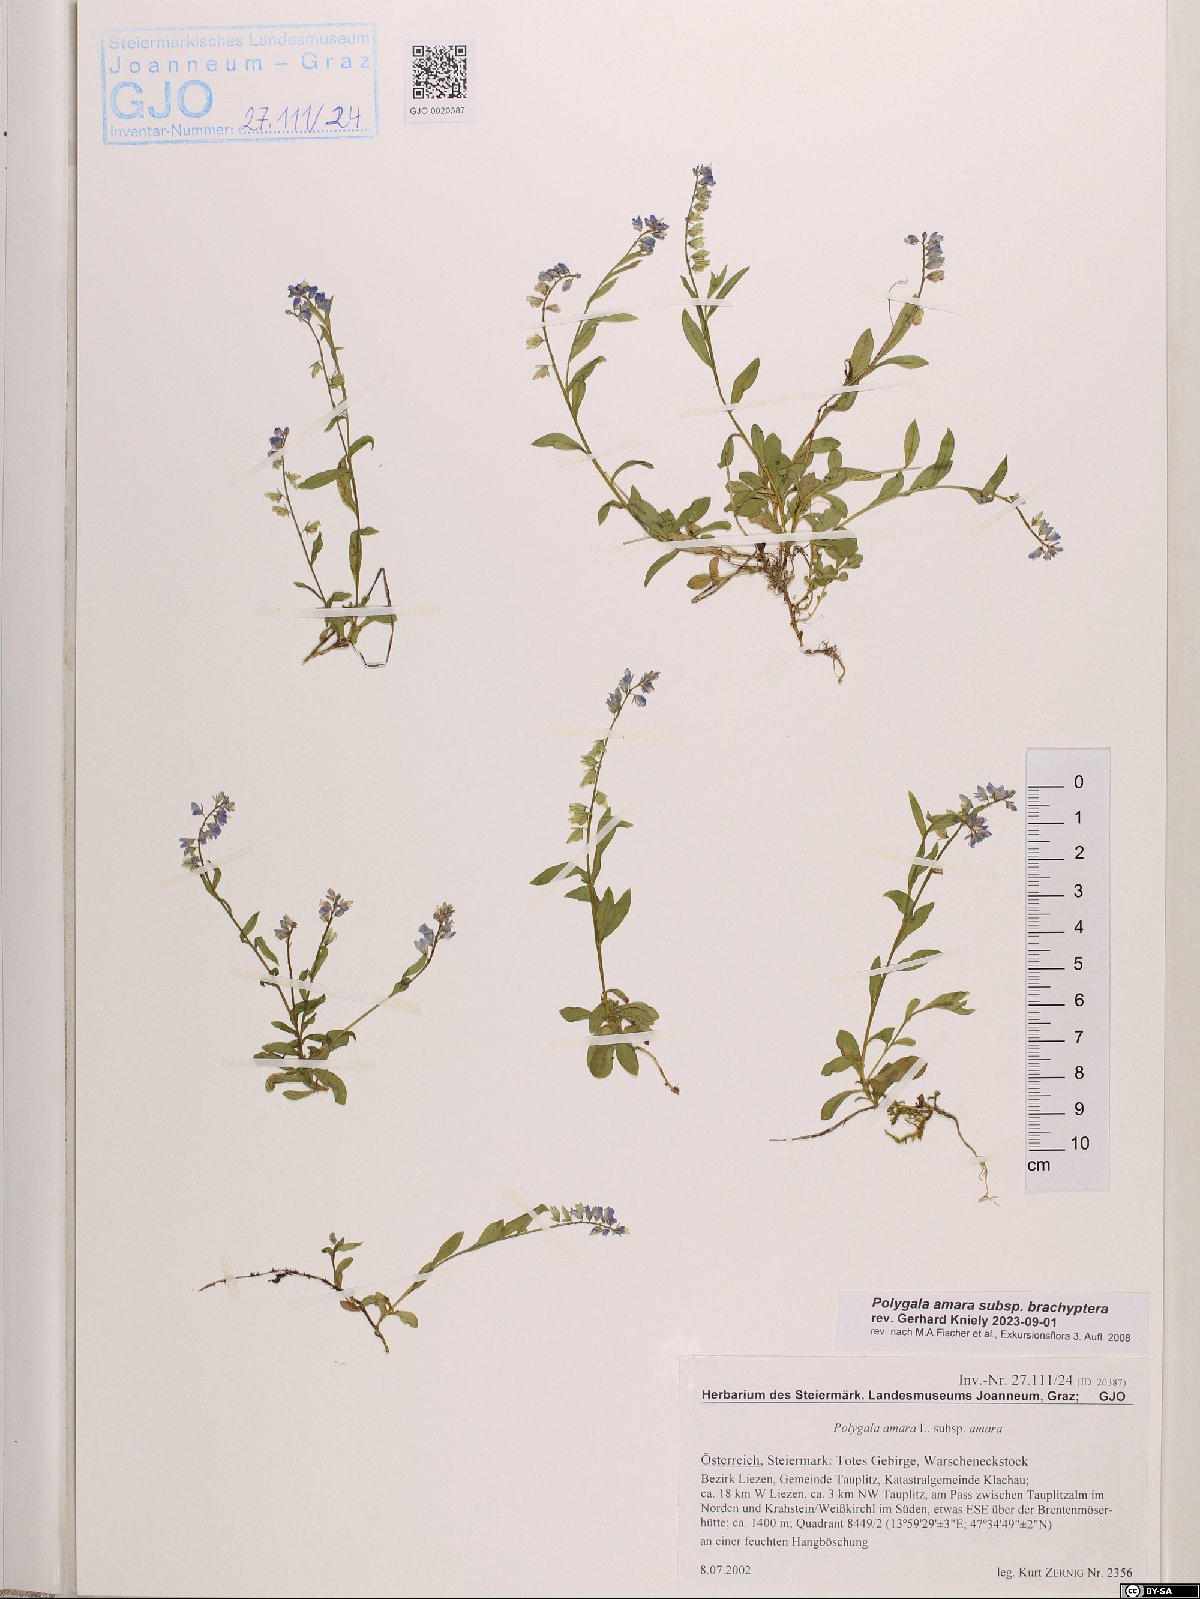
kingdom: Plantae
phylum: Tracheophyta
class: Magnoliopsida
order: Fabales
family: Polygalaceae
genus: Polygala
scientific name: Polygala amara
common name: Milkwort
